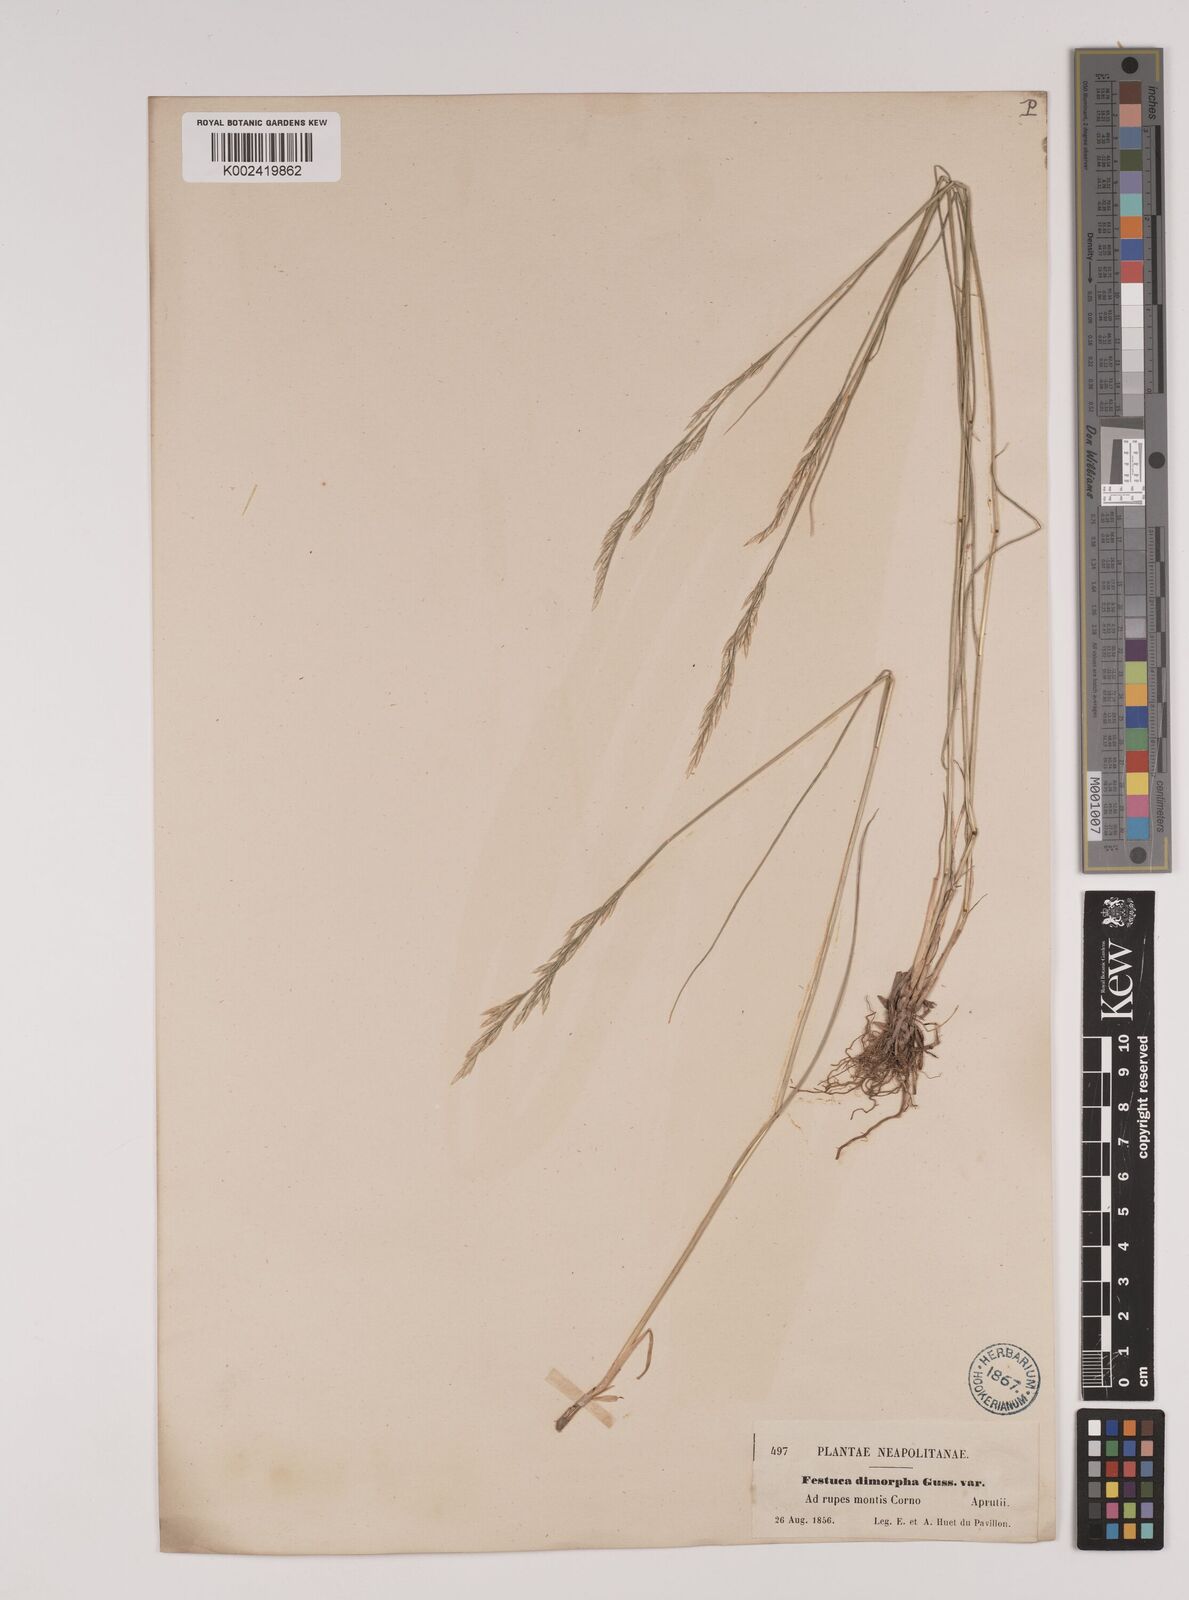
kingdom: Plantae
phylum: Tracheophyta
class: Liliopsida
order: Poales
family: Poaceae
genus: Festuca
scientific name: Festuca dimorpha
